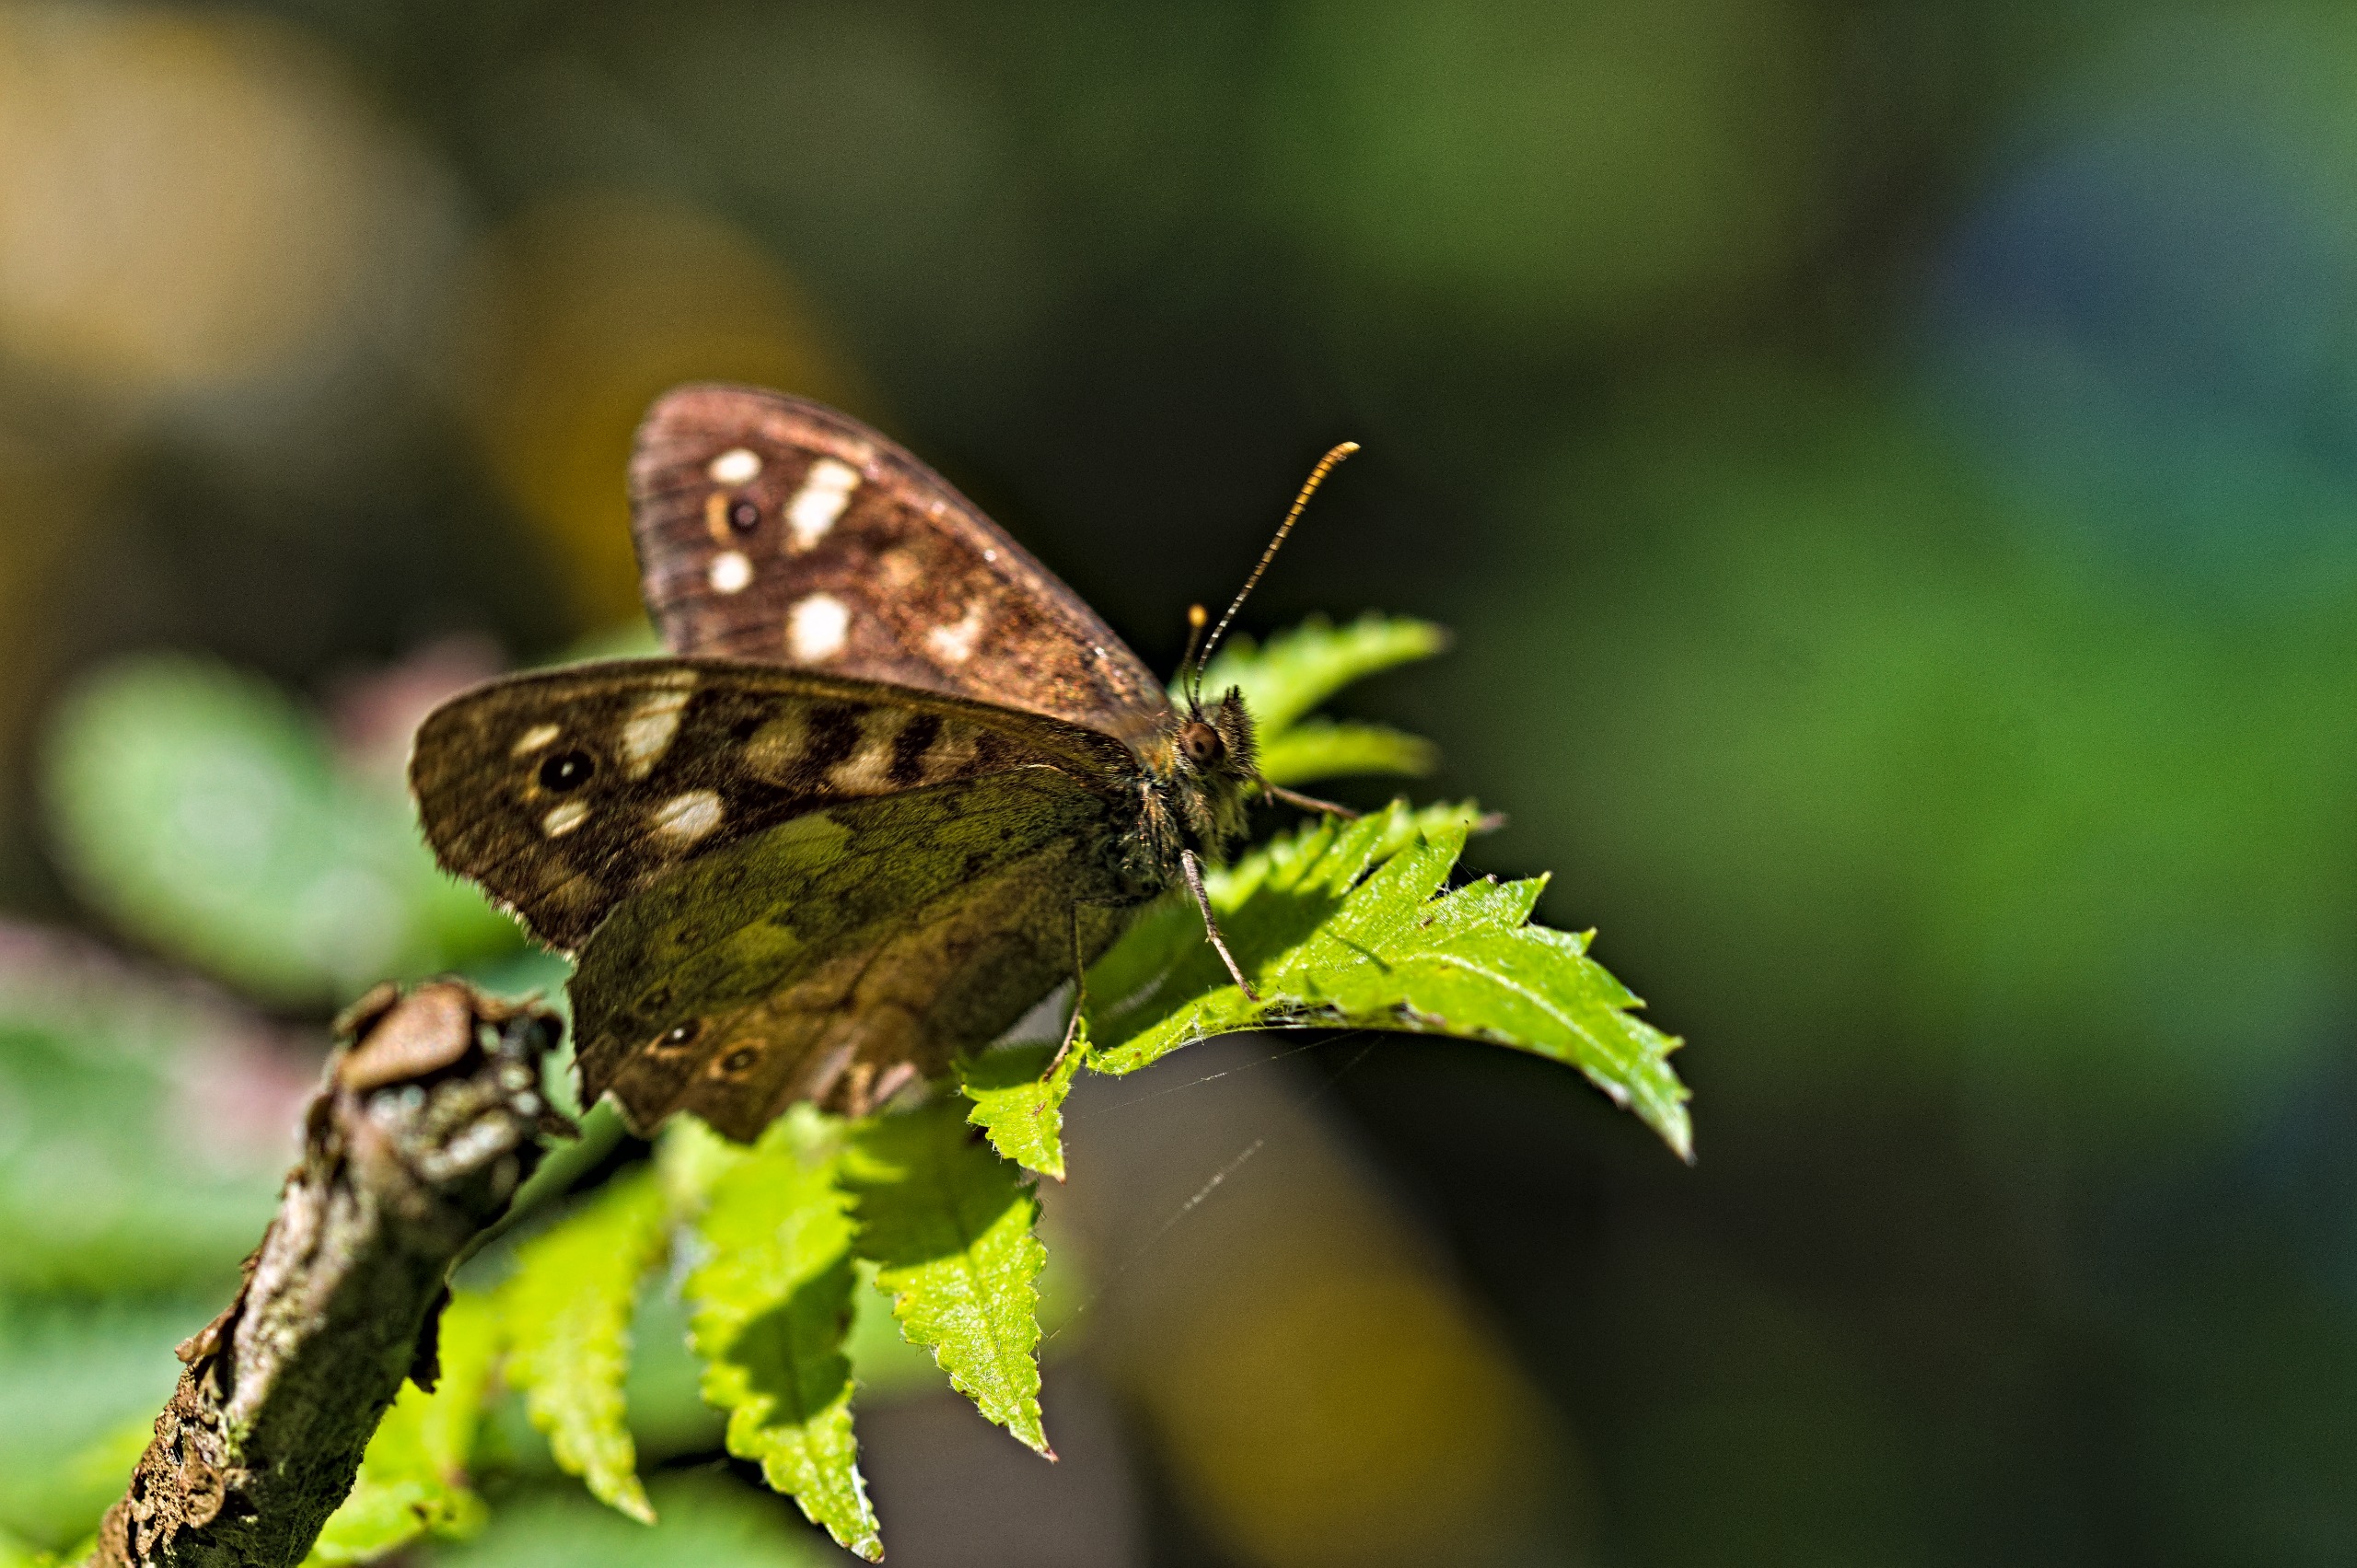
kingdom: Animalia
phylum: Arthropoda
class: Insecta
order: Lepidoptera
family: Nymphalidae
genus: Pararge
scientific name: Pararge aegeria
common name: Skovrandøje
